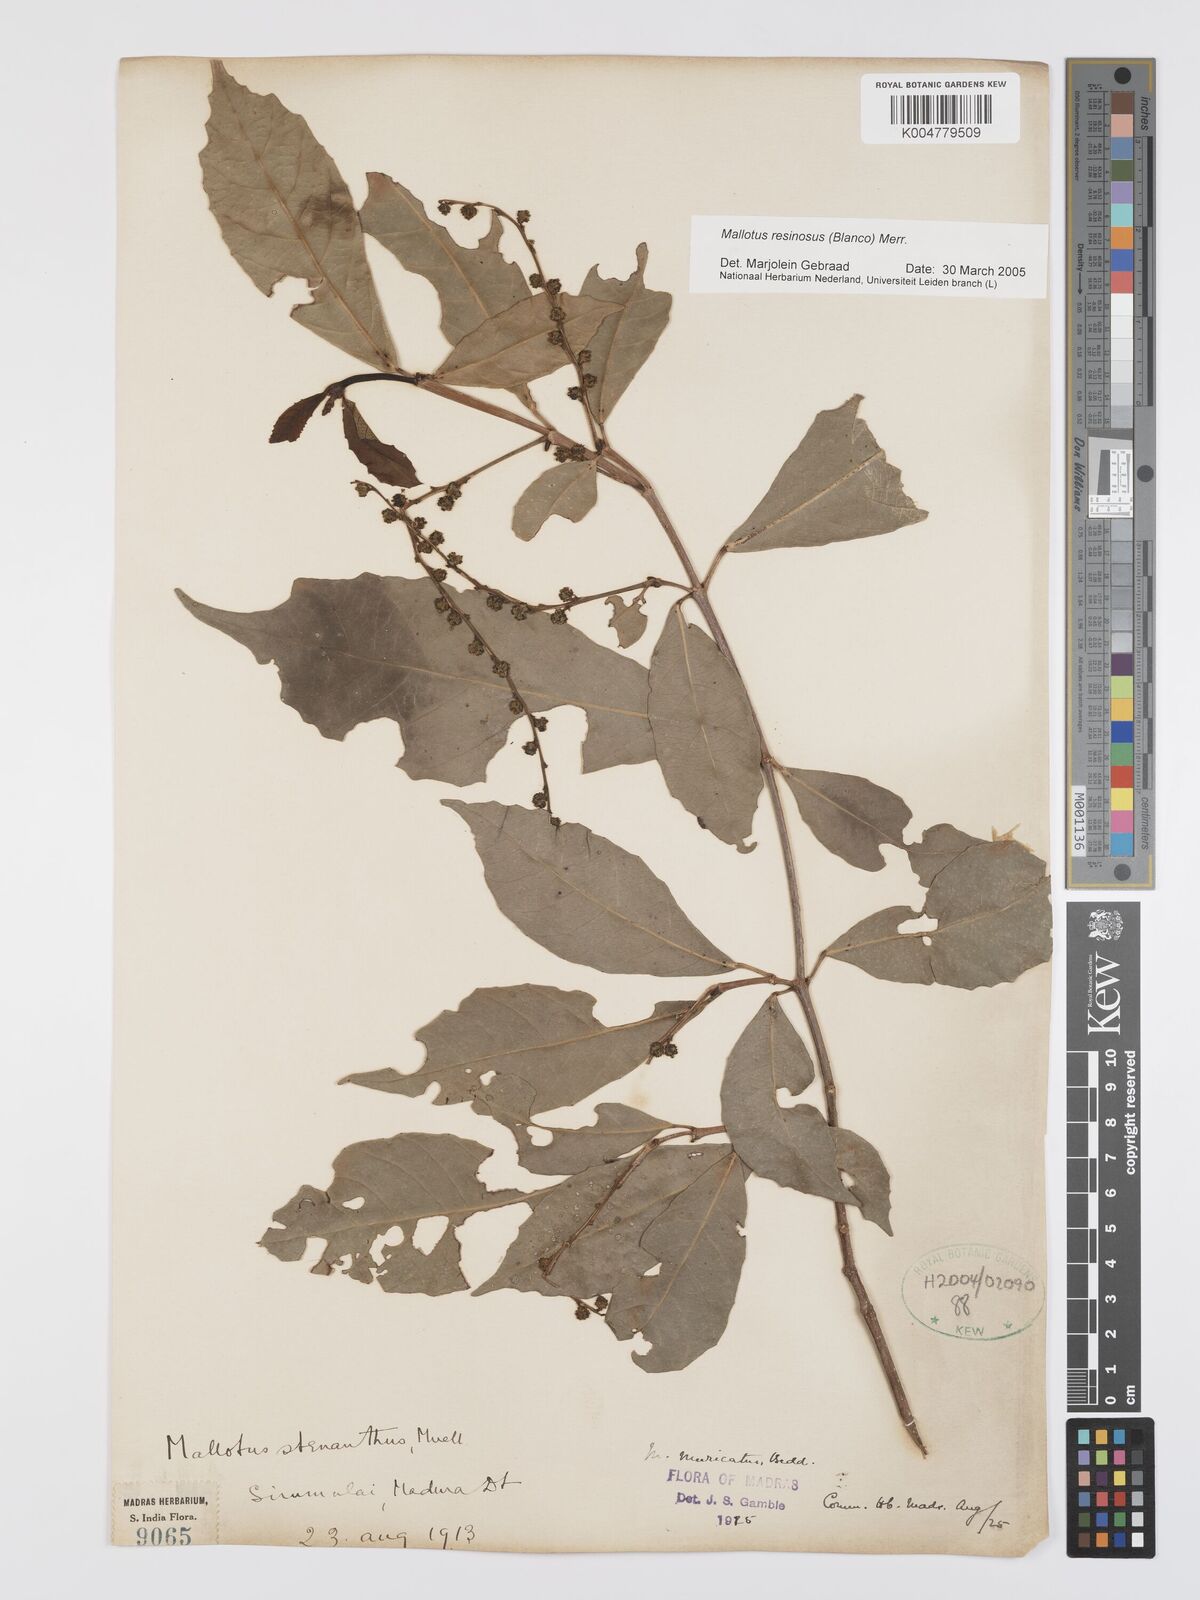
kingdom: Plantae
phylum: Tracheophyta
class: Magnoliopsida
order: Malpighiales
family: Euphorbiaceae
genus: Mallotus
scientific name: Mallotus resinosus
